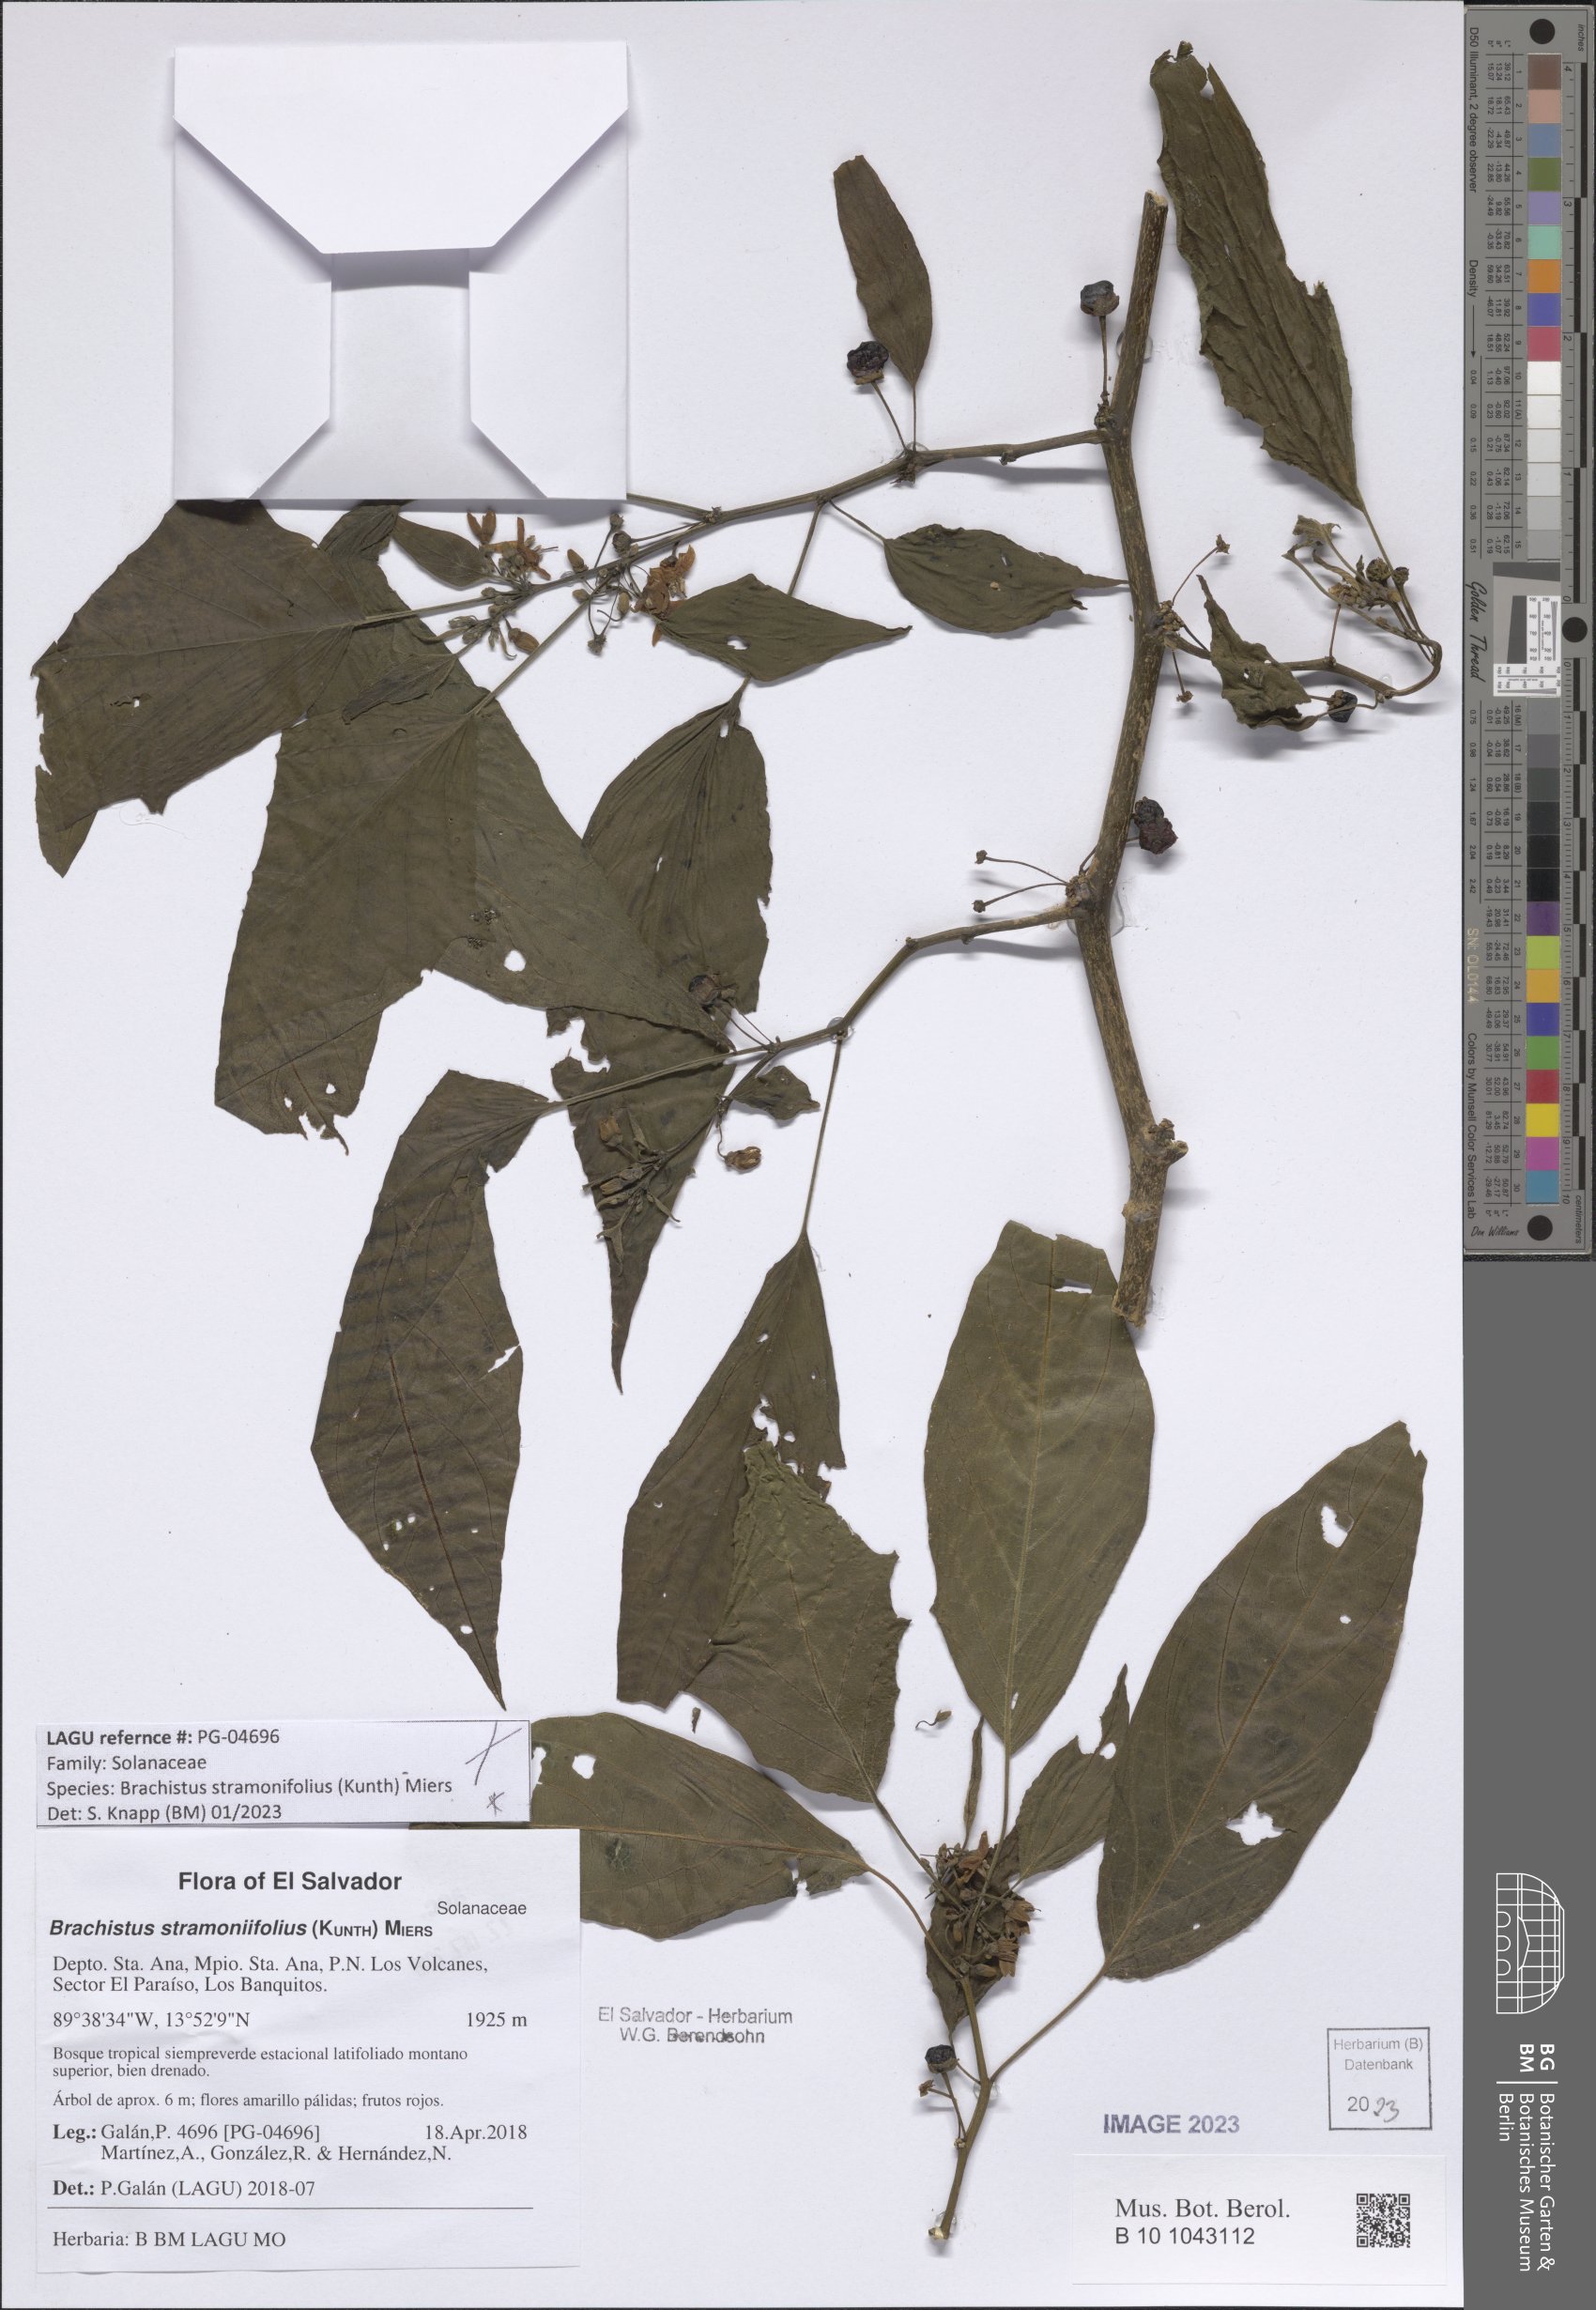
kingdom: Plantae
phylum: Tracheophyta
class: Magnoliopsida
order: Solanales
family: Solanaceae
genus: Brachistus
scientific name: Brachistus stramonifolius
